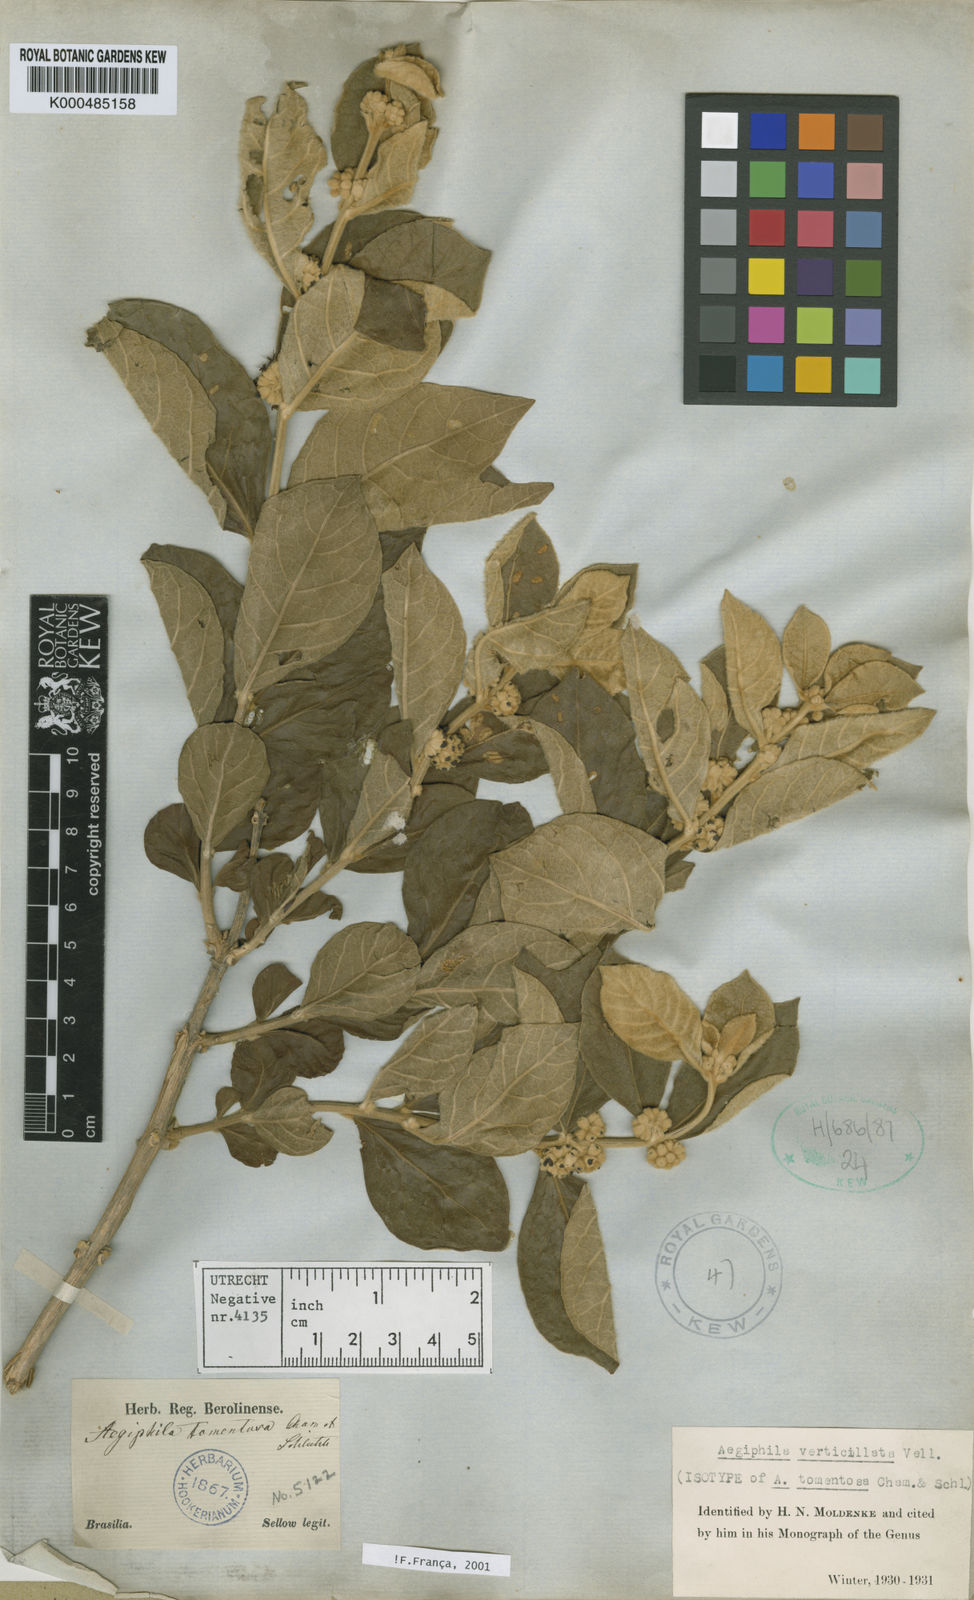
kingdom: Plantae
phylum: Tracheophyta
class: Magnoliopsida
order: Lamiales
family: Lamiaceae
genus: Aegiphila
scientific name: Aegiphila verticillata
